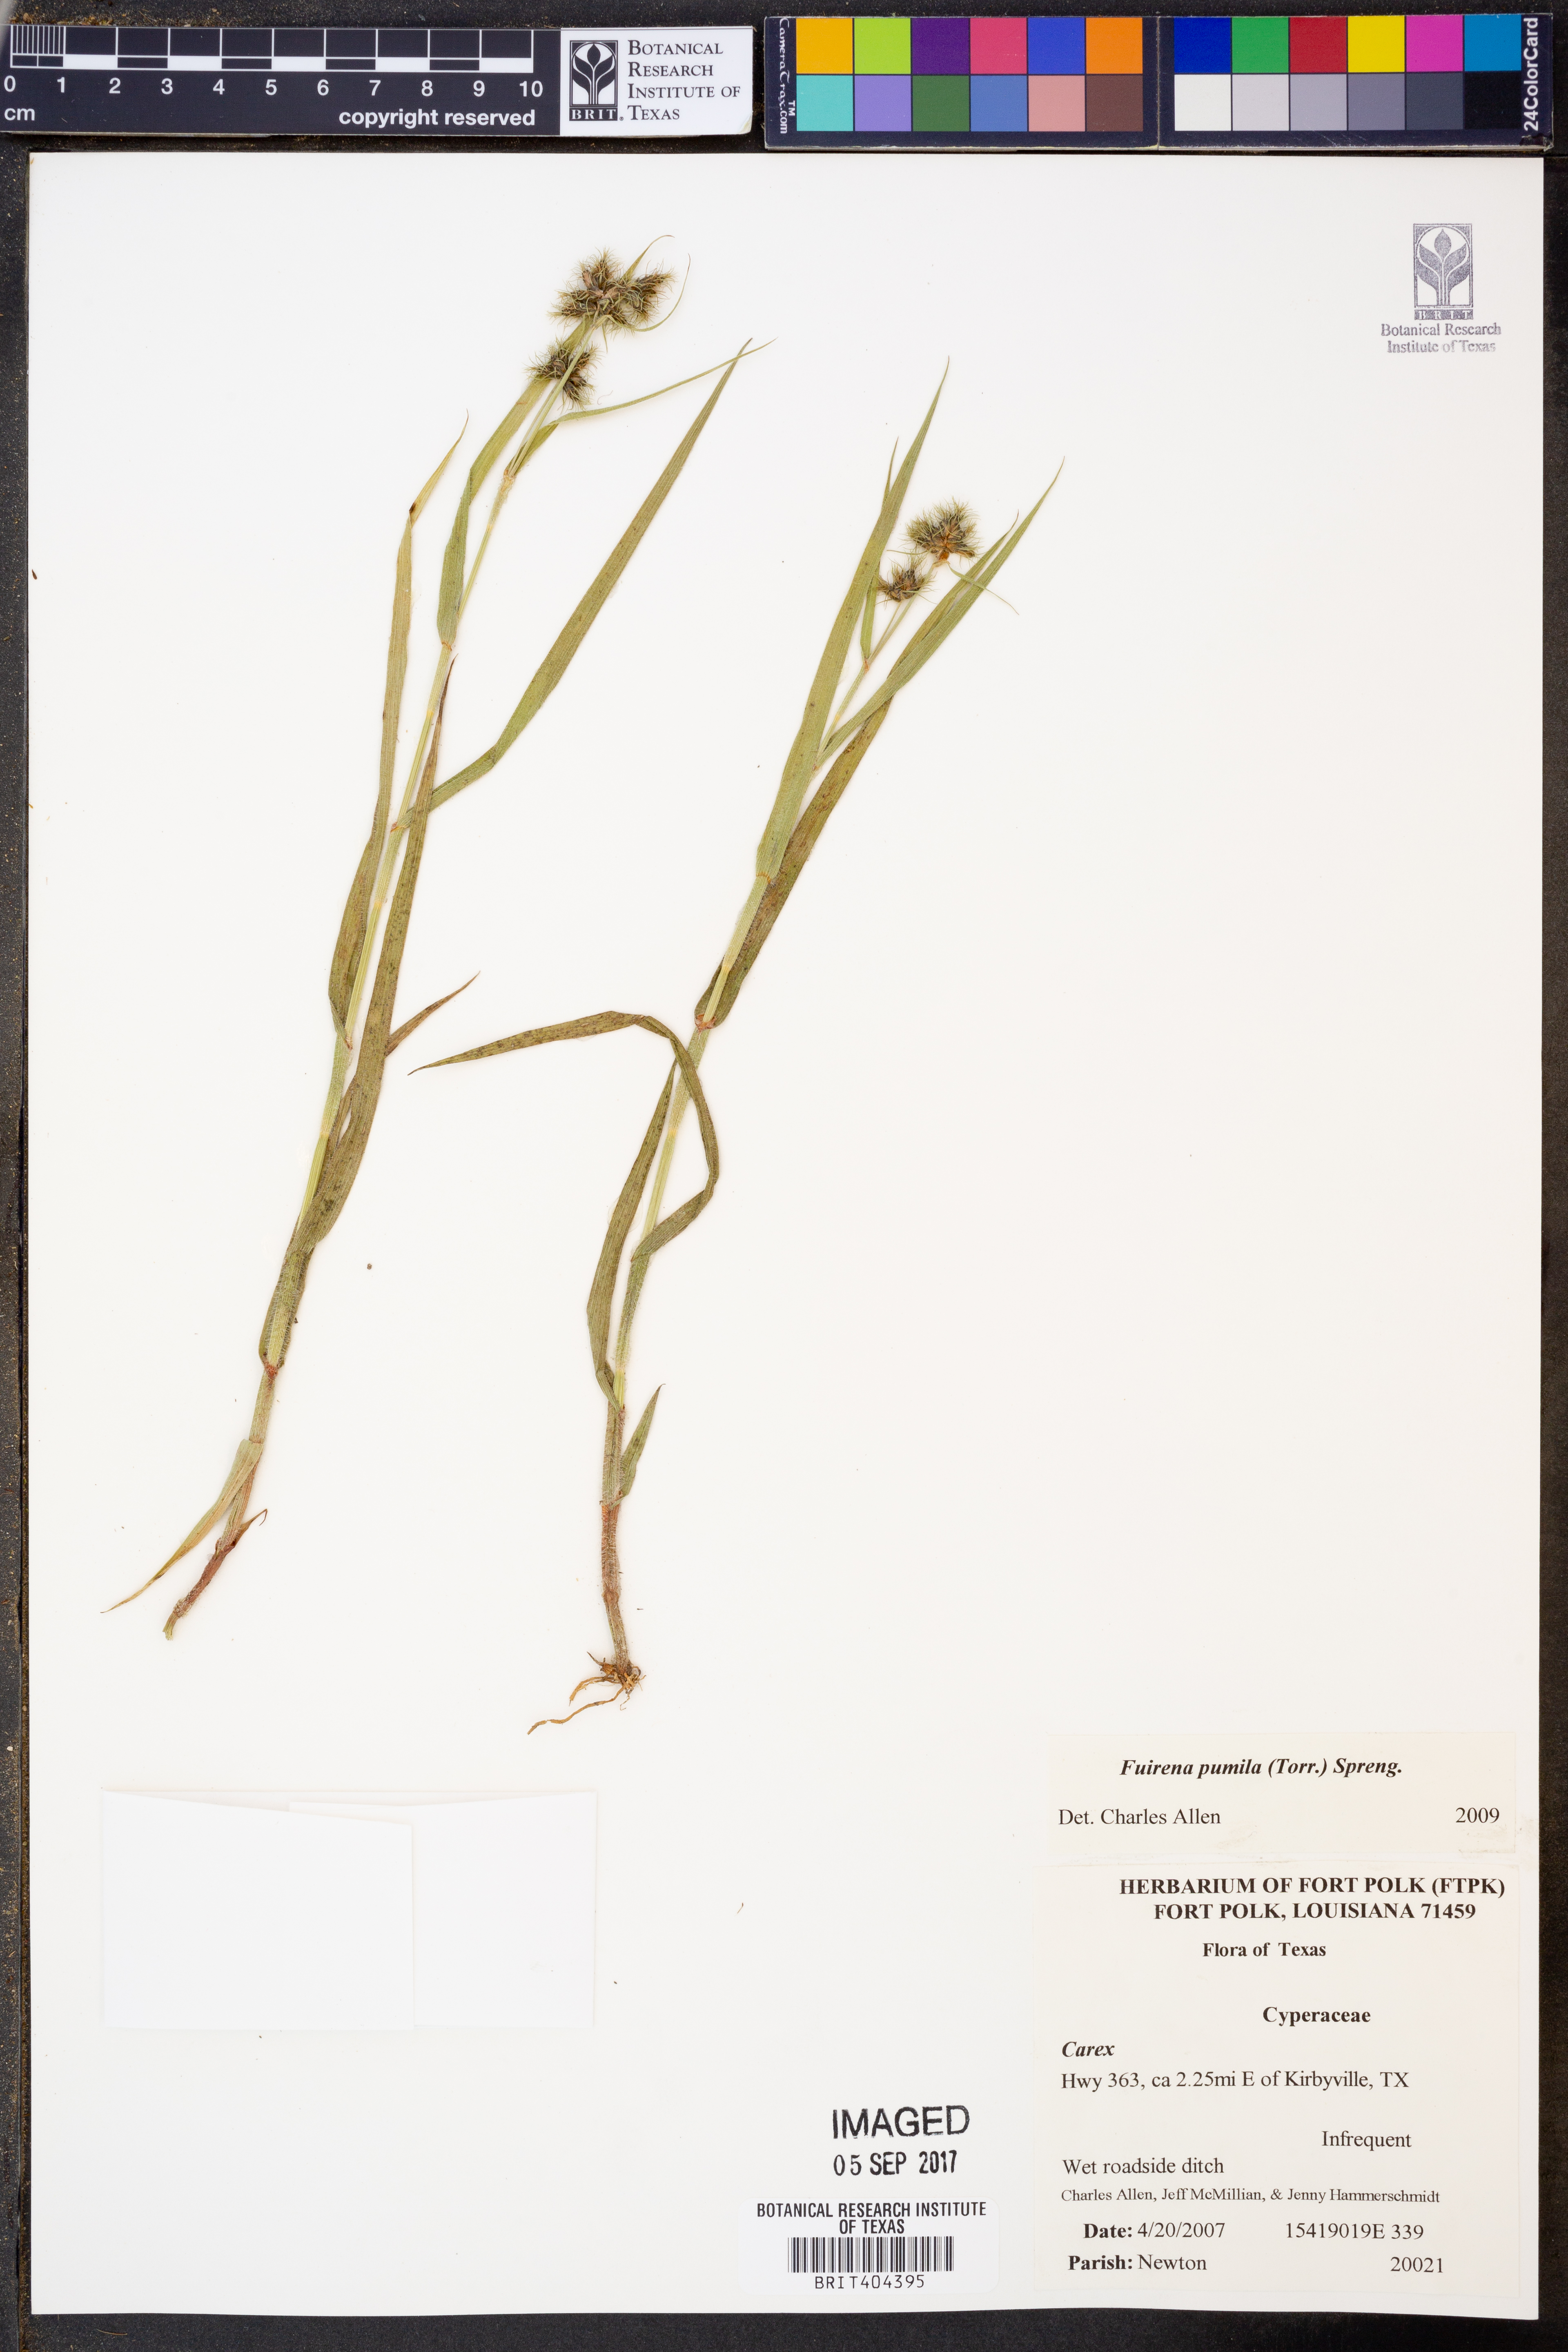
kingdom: Plantae
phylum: Tracheophyta
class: Liliopsida
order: Poales
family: Cyperaceae
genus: Fuirena
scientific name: Fuirena pumila
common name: Dwarf umbrella sedge
